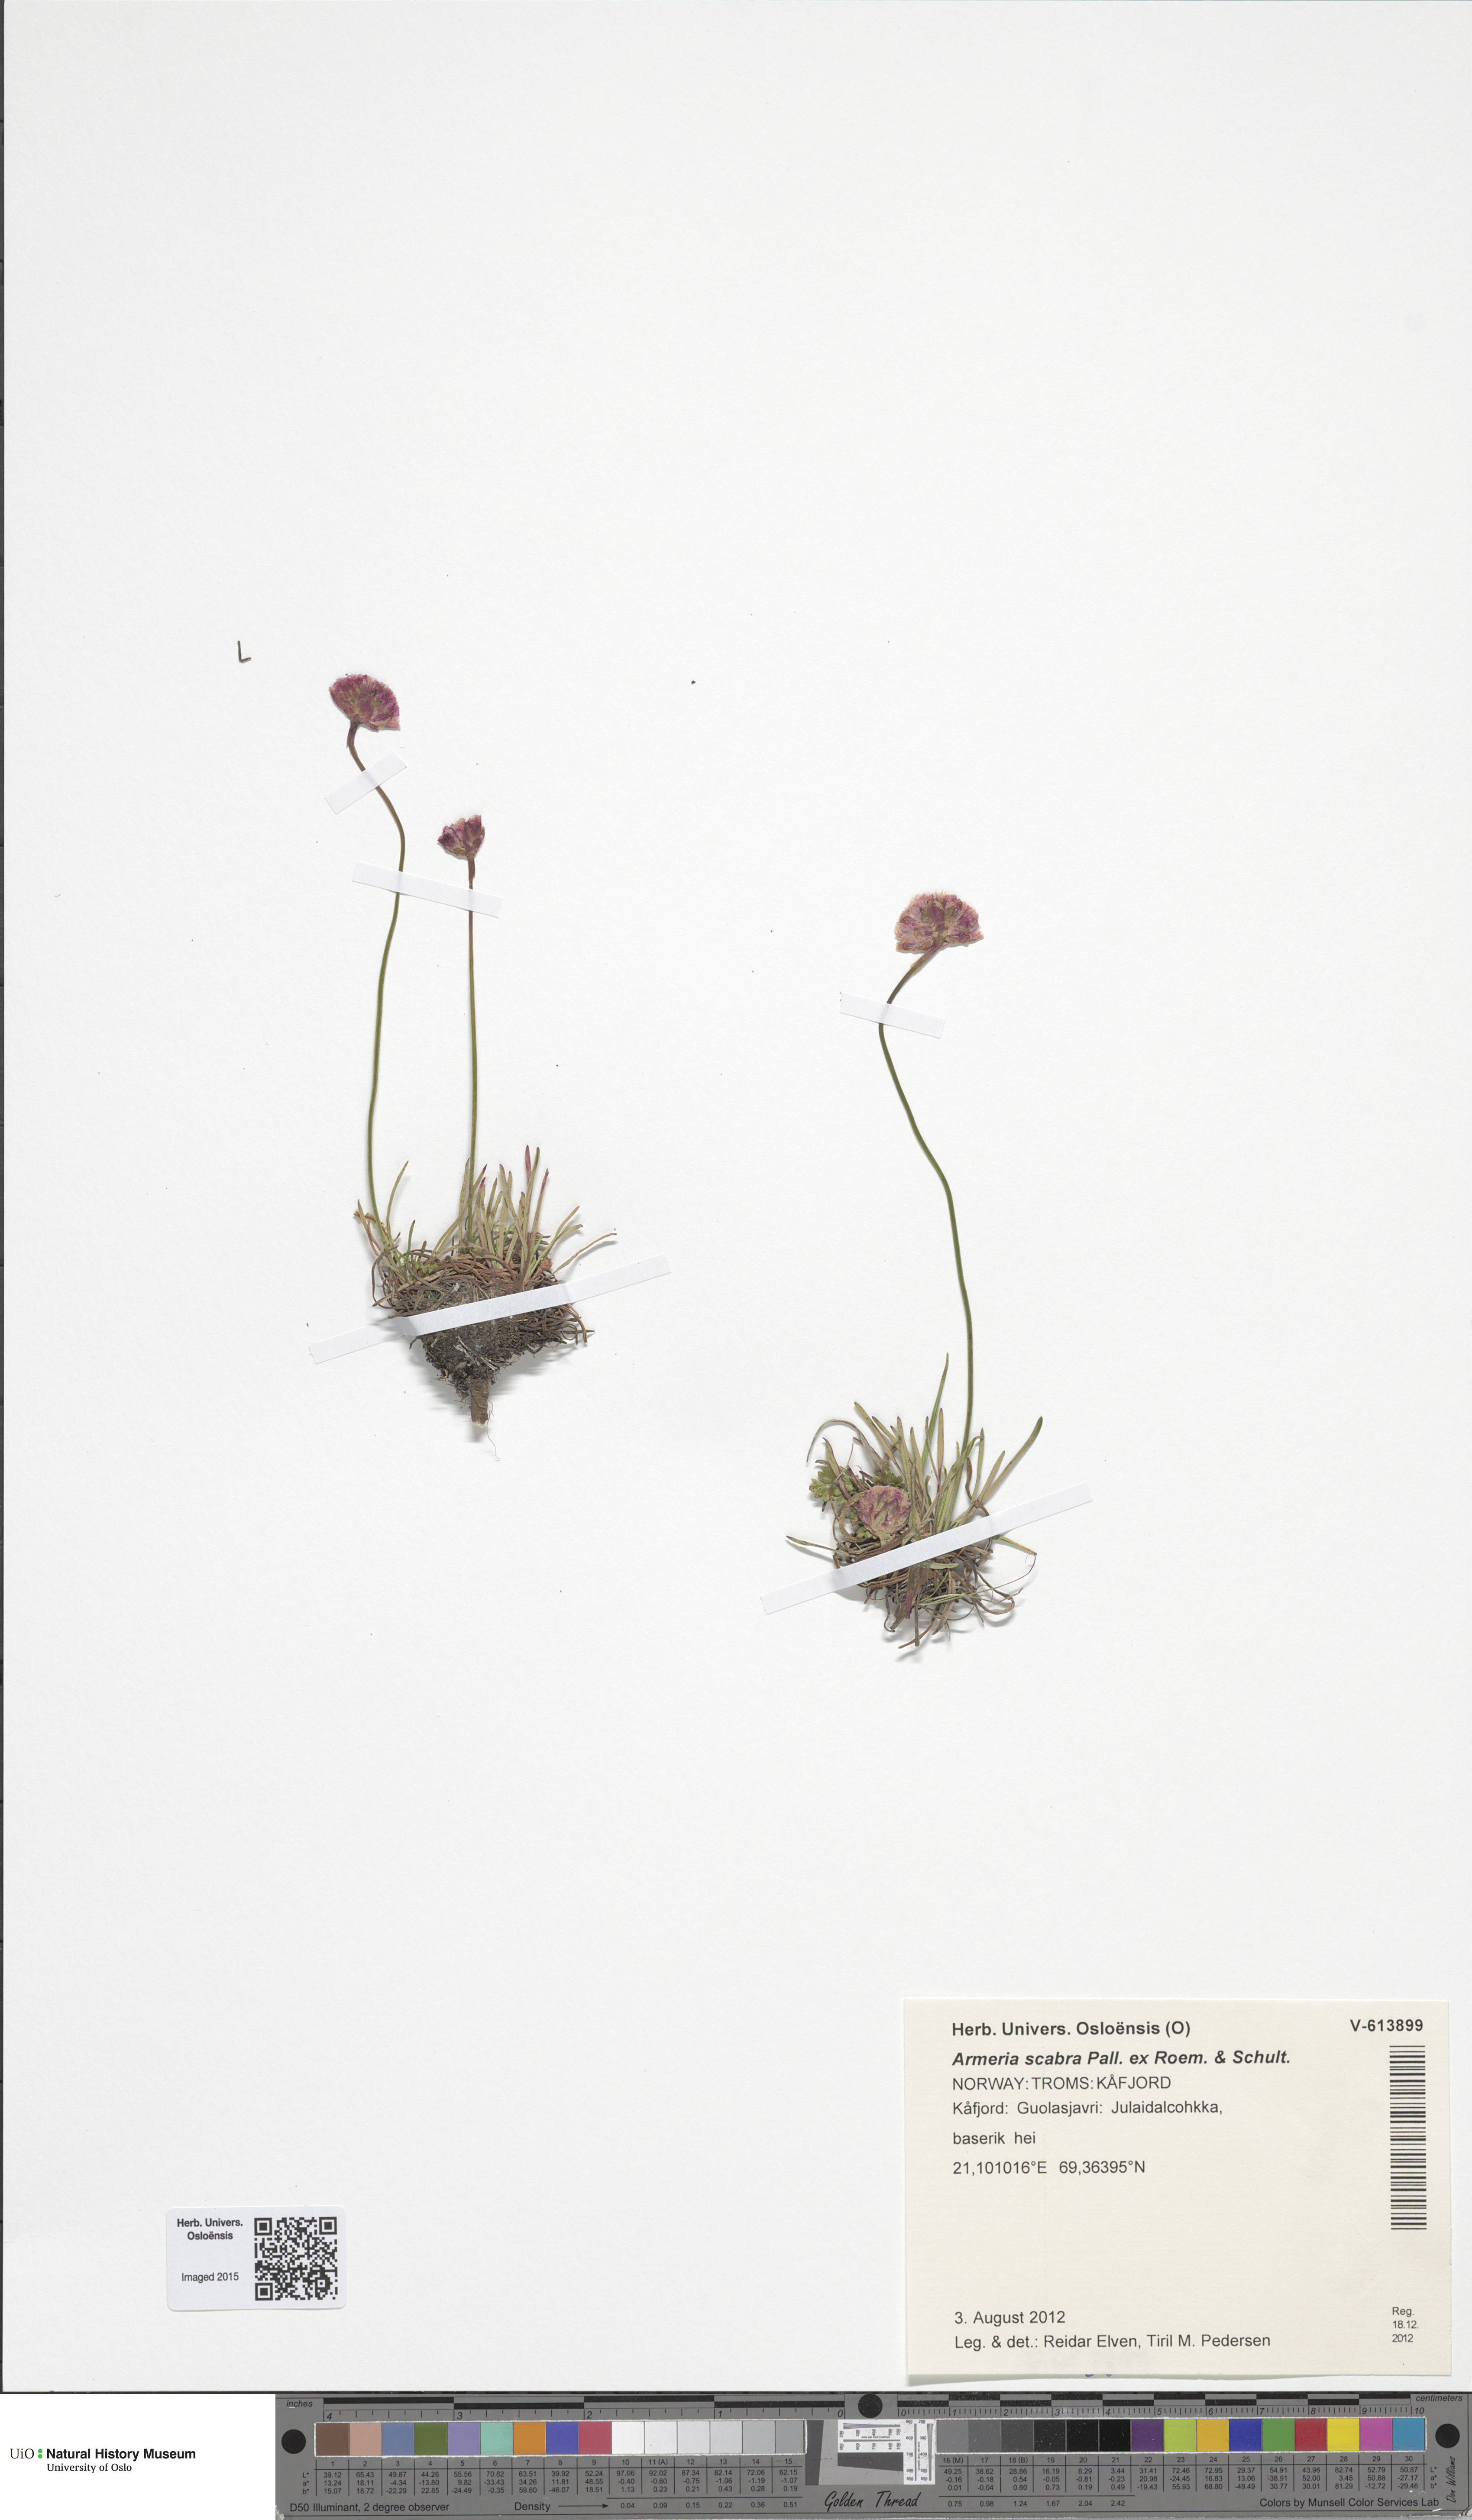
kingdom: Plantae
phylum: Tracheophyta
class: Magnoliopsida
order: Caryophyllales
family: Plumbaginaceae
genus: Armeria
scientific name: Armeria maritima
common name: Thrift
